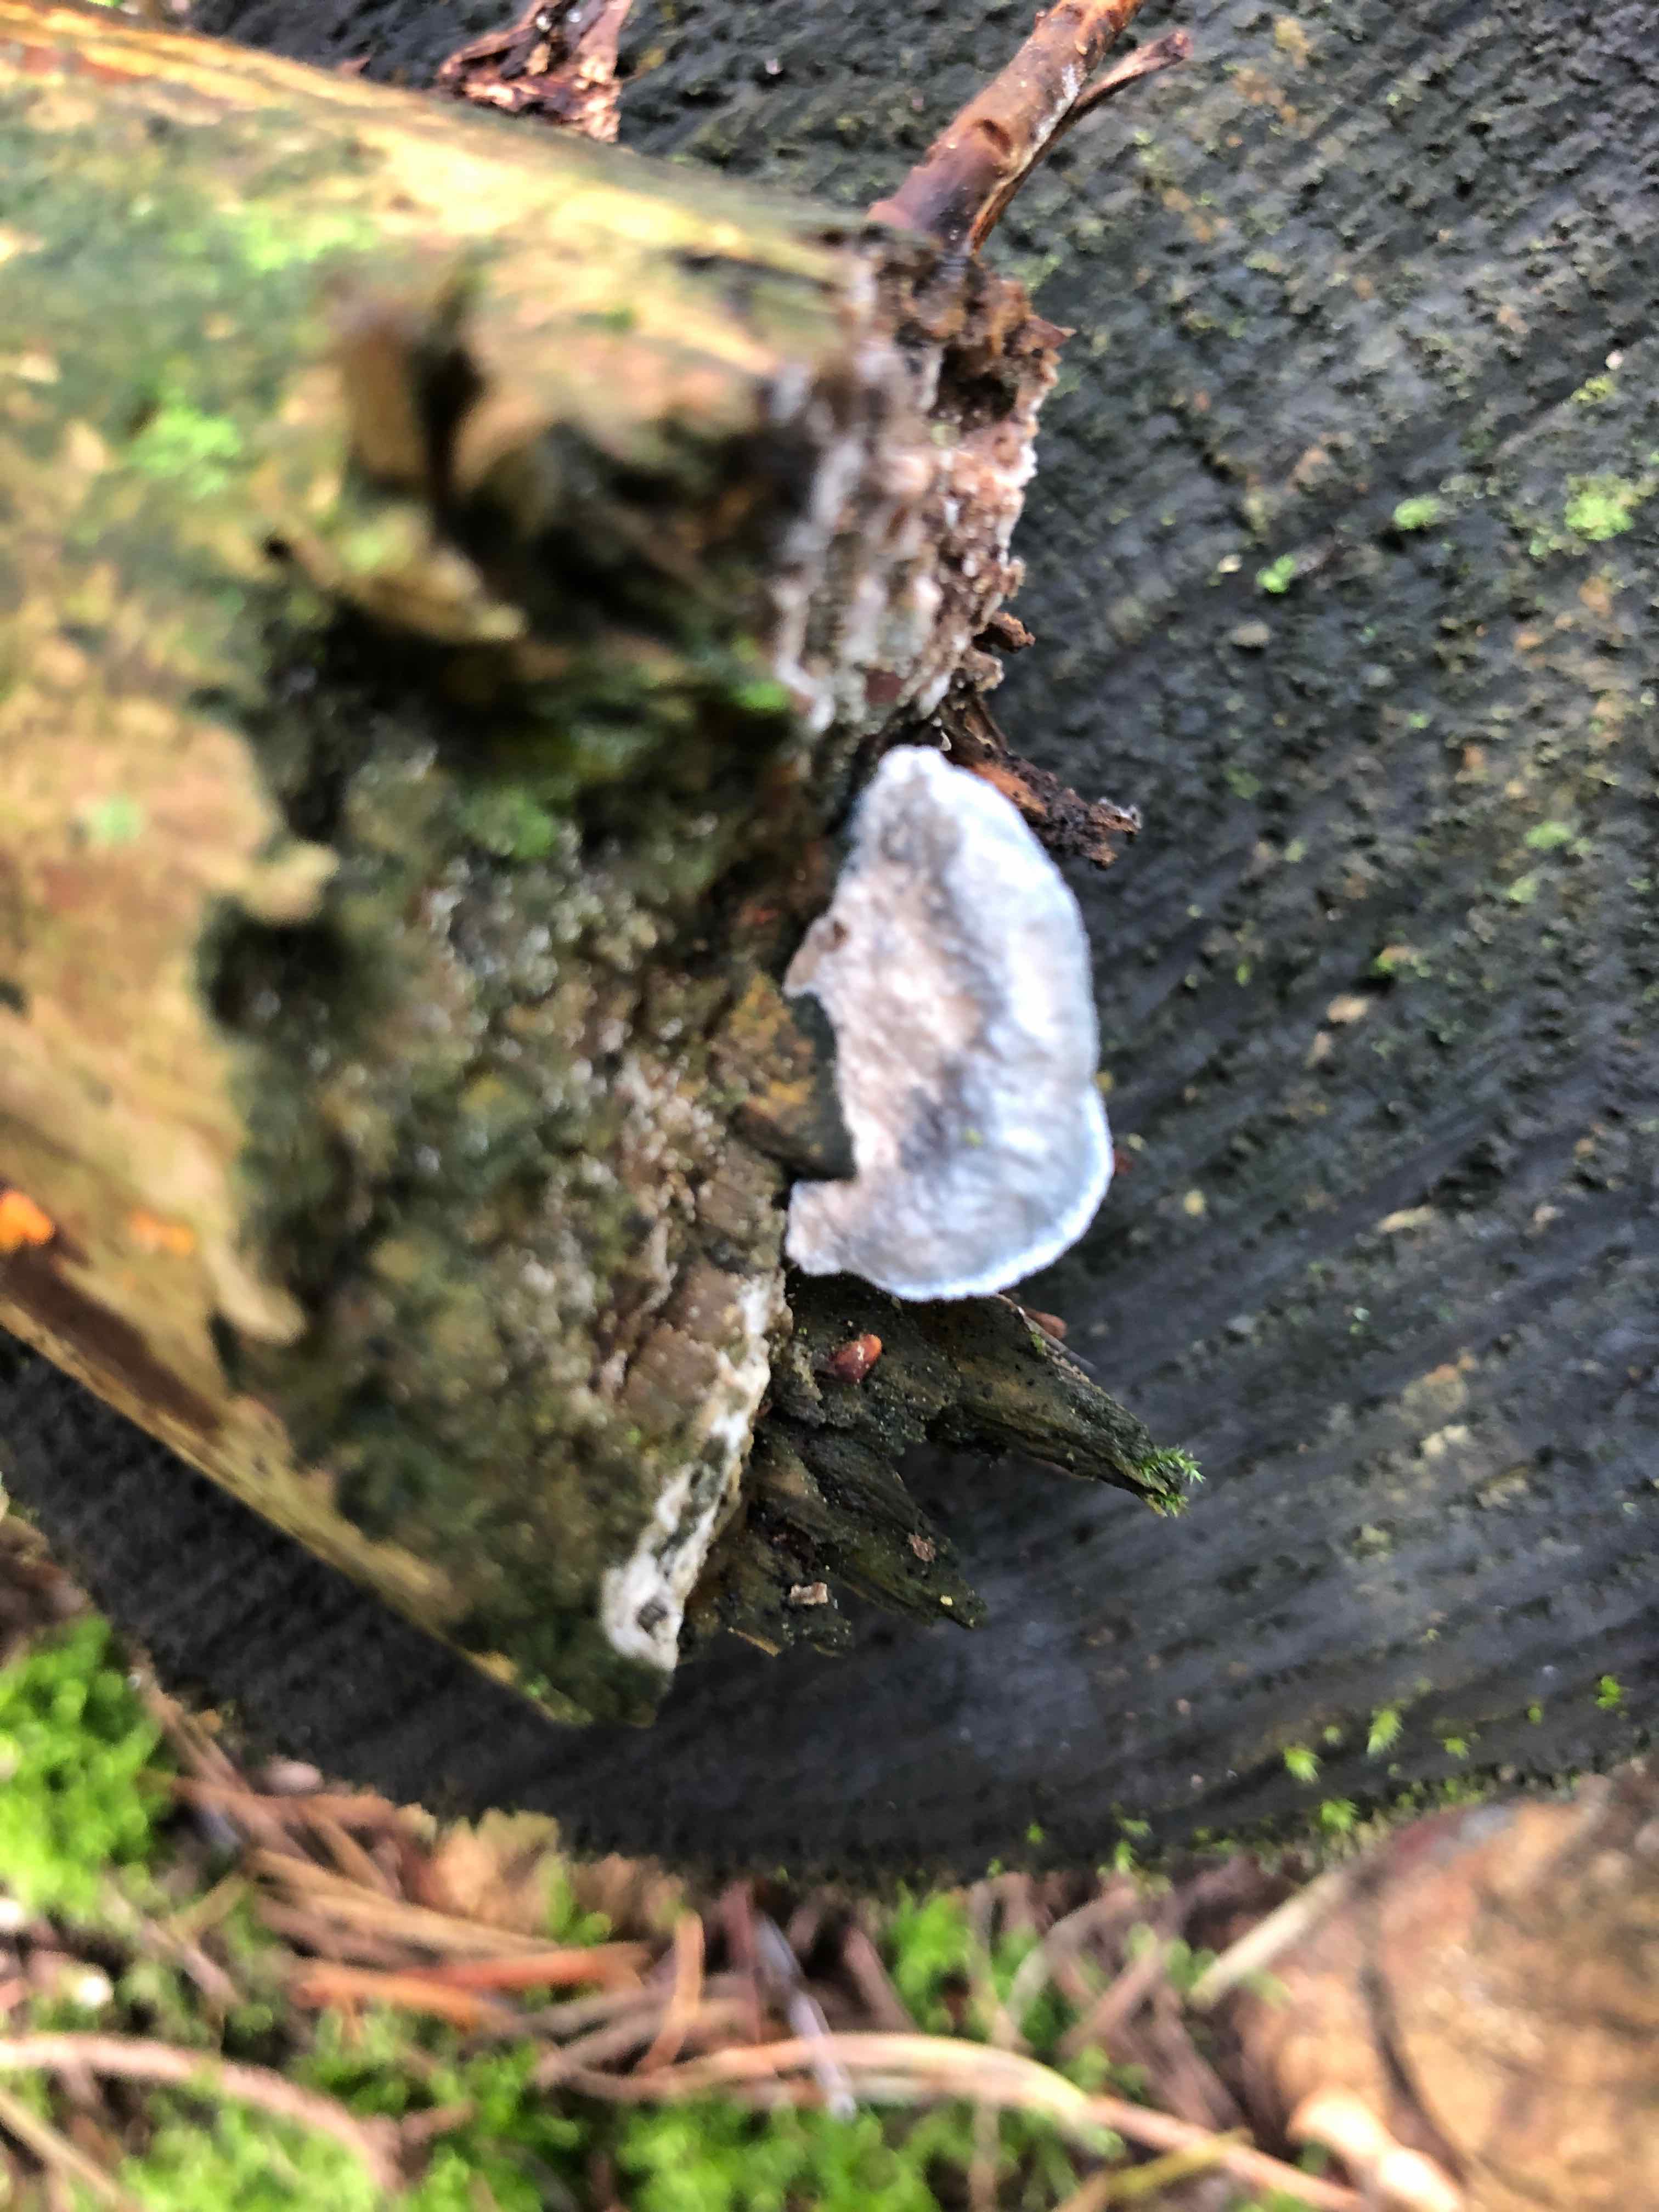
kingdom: Fungi
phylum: Basidiomycota
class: Agaricomycetes
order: Polyporales
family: Polyporaceae
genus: Cyanosporus
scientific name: Cyanosporus caesius
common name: blålig kødporesvamp
